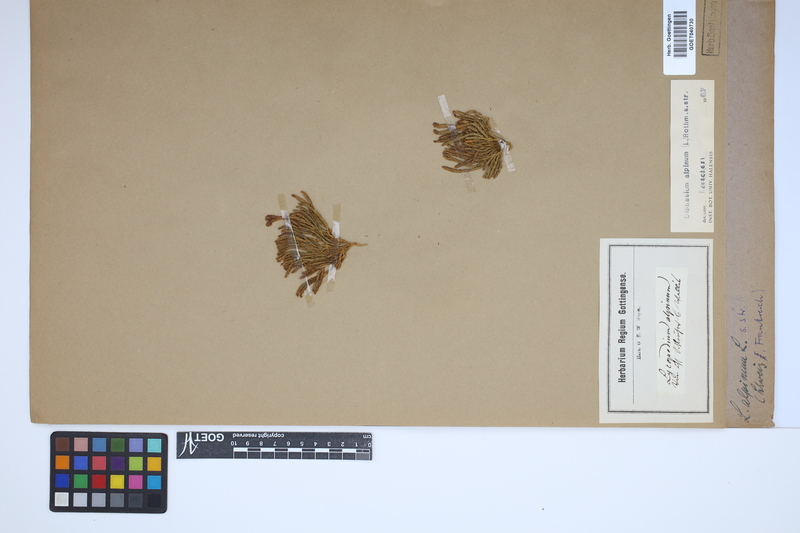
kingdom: Plantae
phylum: Tracheophyta
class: Lycopodiopsida
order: Lycopodiales
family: Lycopodiaceae
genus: Diphasiastrum
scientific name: Diphasiastrum alpinum
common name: Alpine clubmoss
